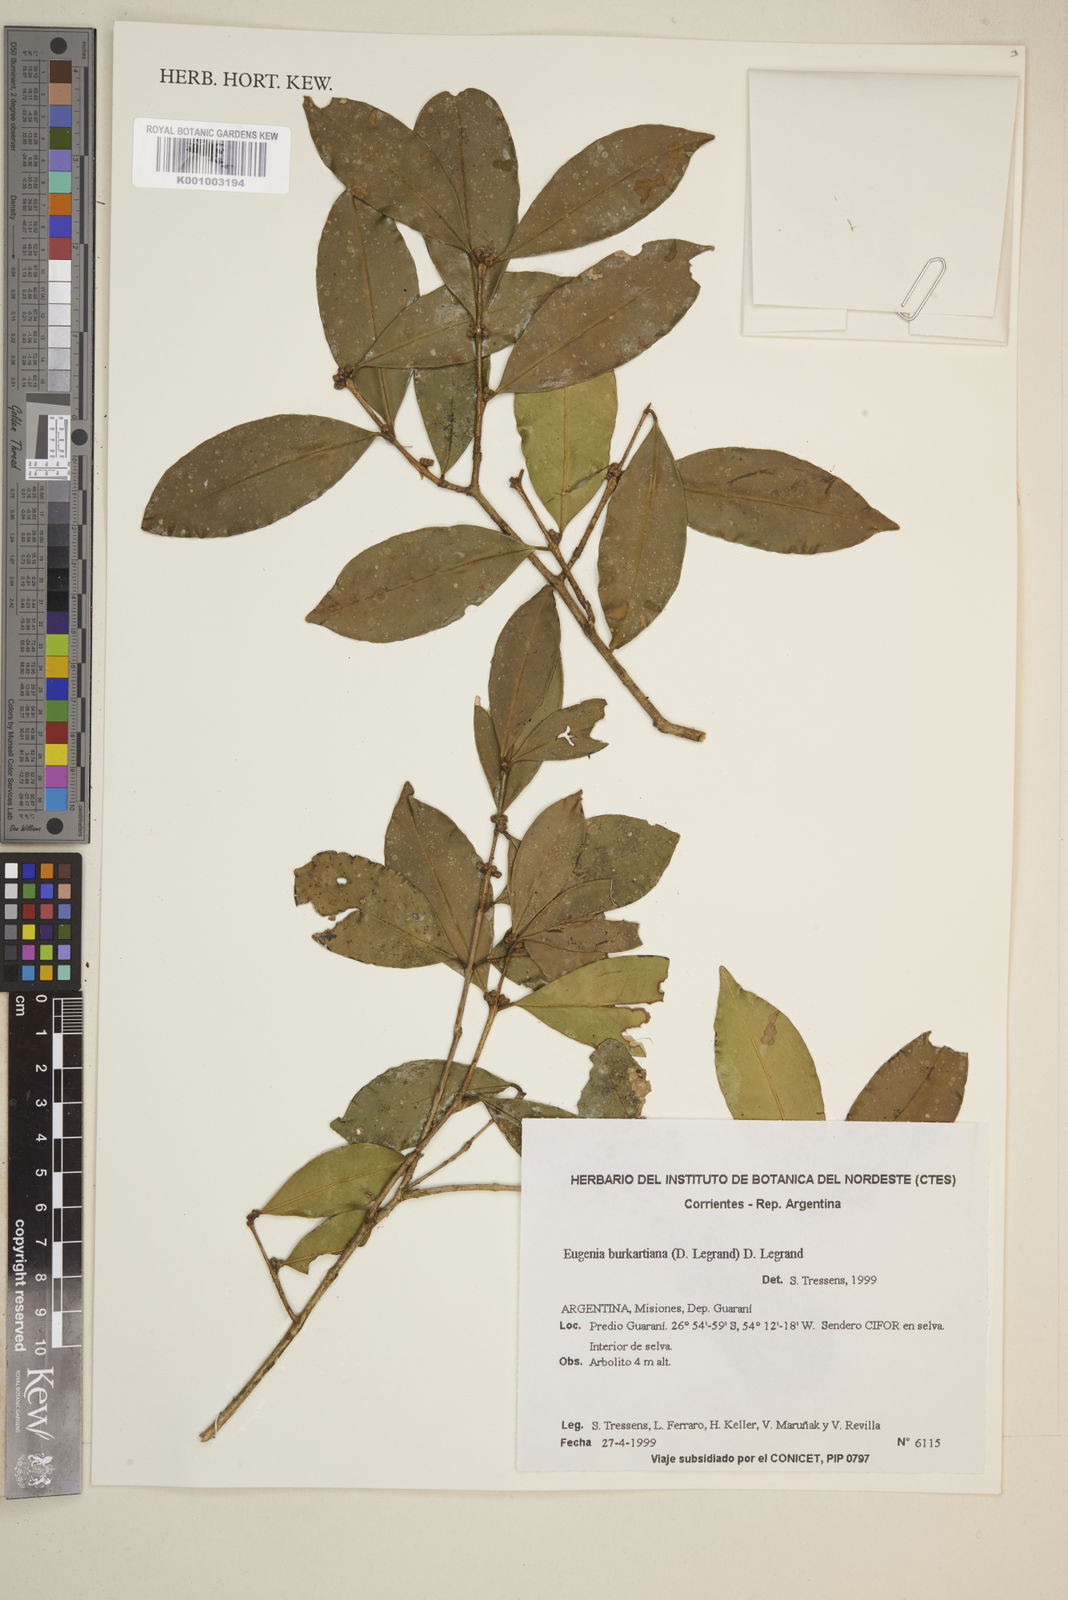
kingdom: Plantae
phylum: Tracheophyta
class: Magnoliopsida
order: Myrtales
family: Myrtaceae
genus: Eugenia
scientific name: Eugenia burkartiana
